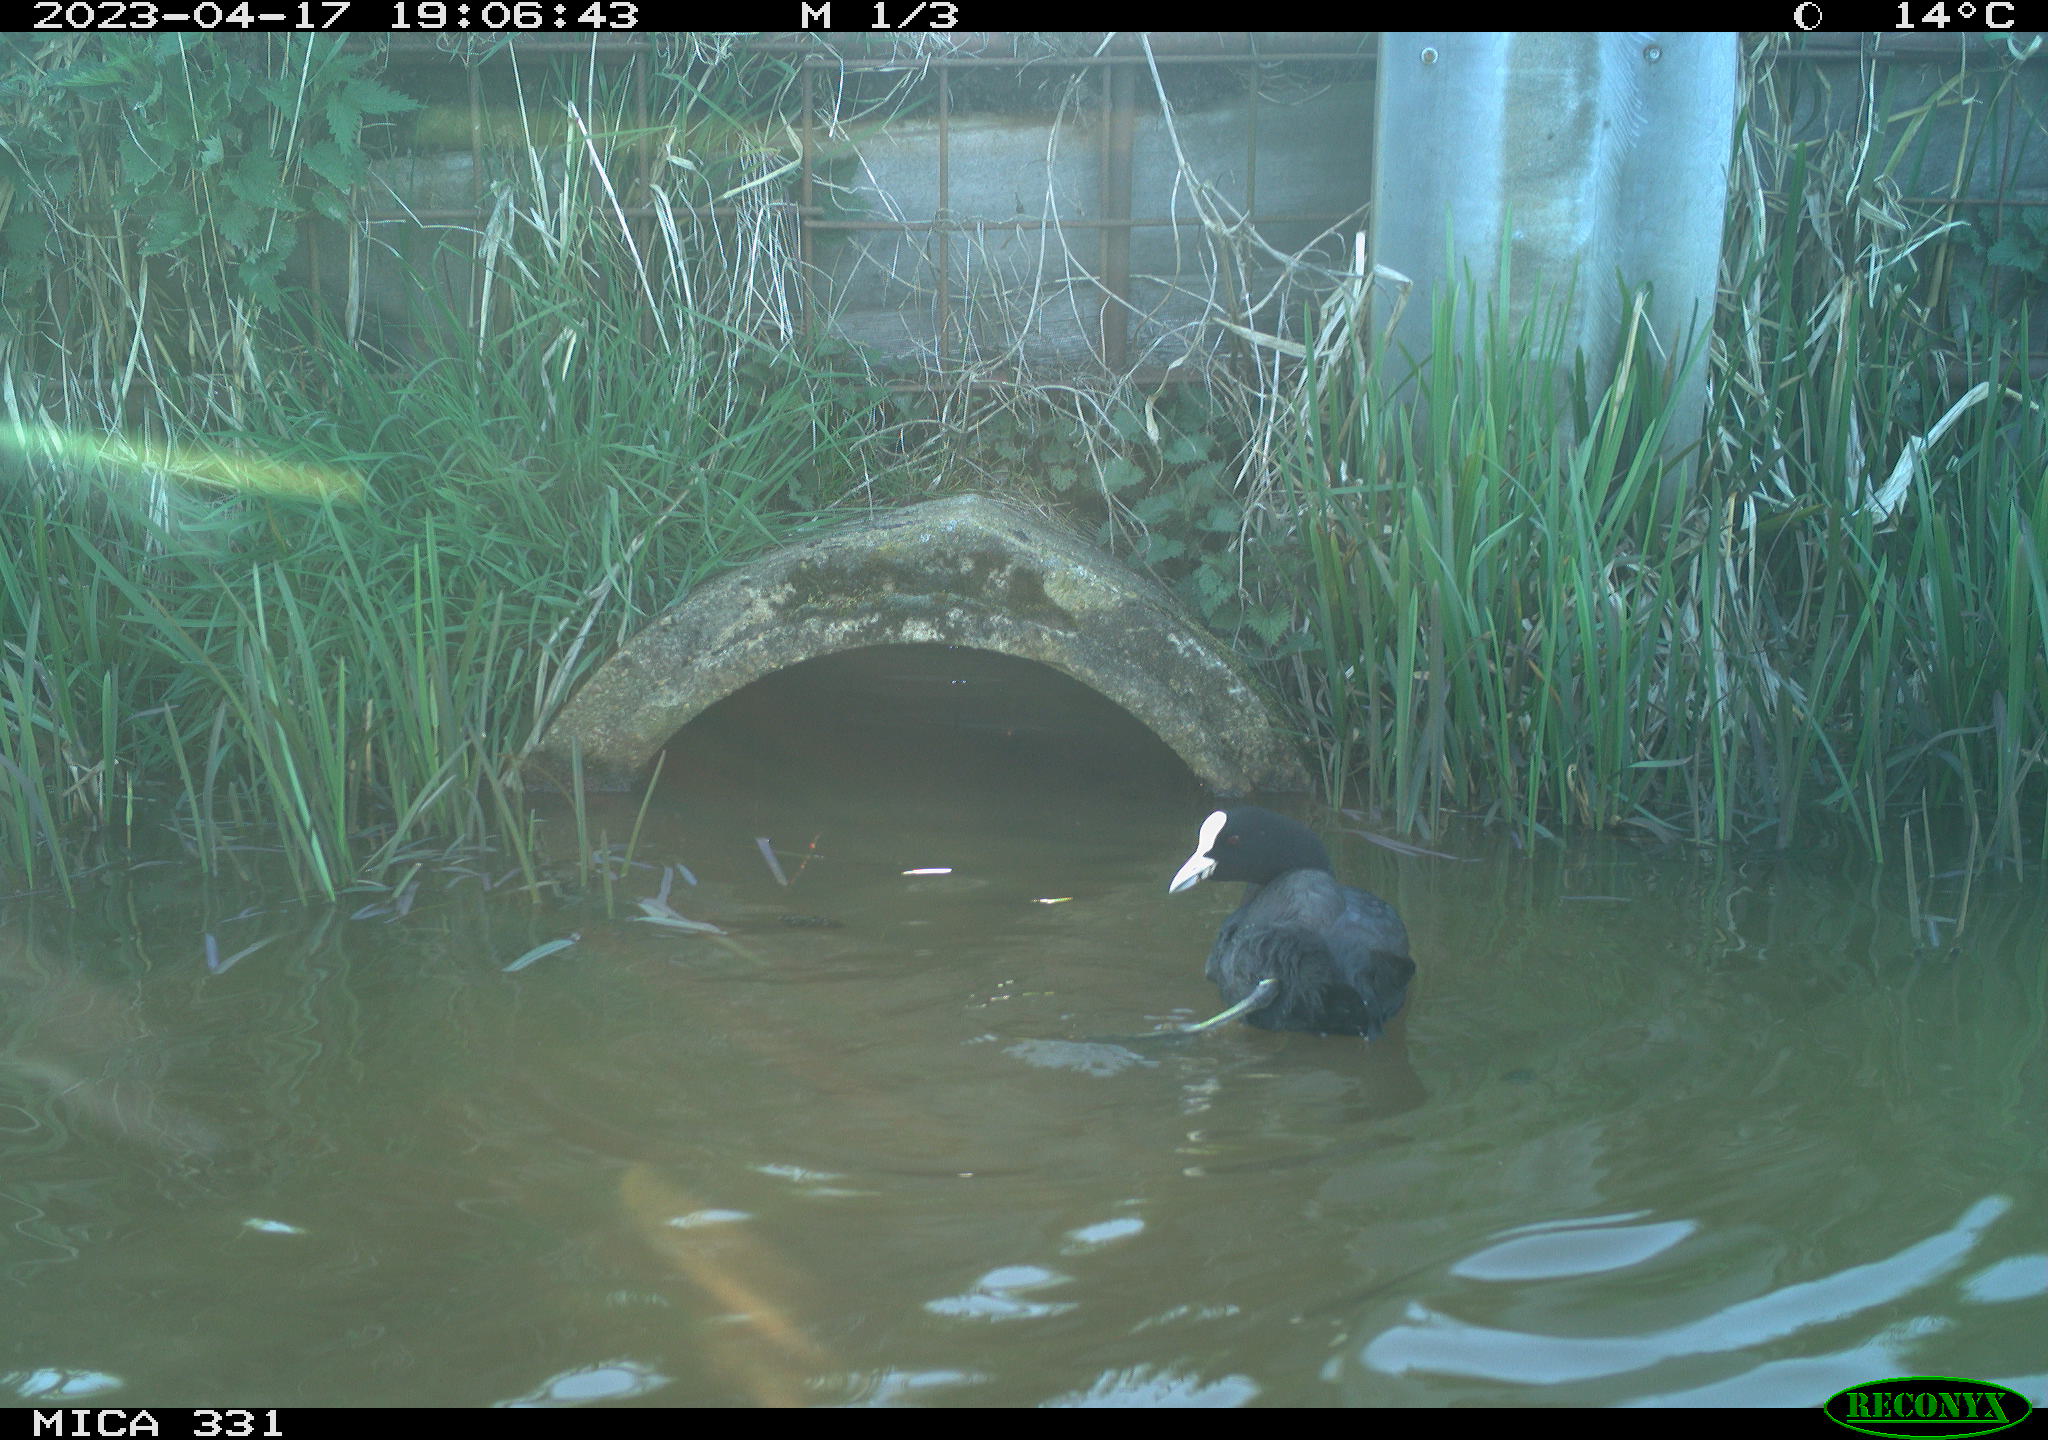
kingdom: Animalia
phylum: Chordata
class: Aves
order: Gruiformes
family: Rallidae
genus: Fulica
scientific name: Fulica atra
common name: Eurasian coot
